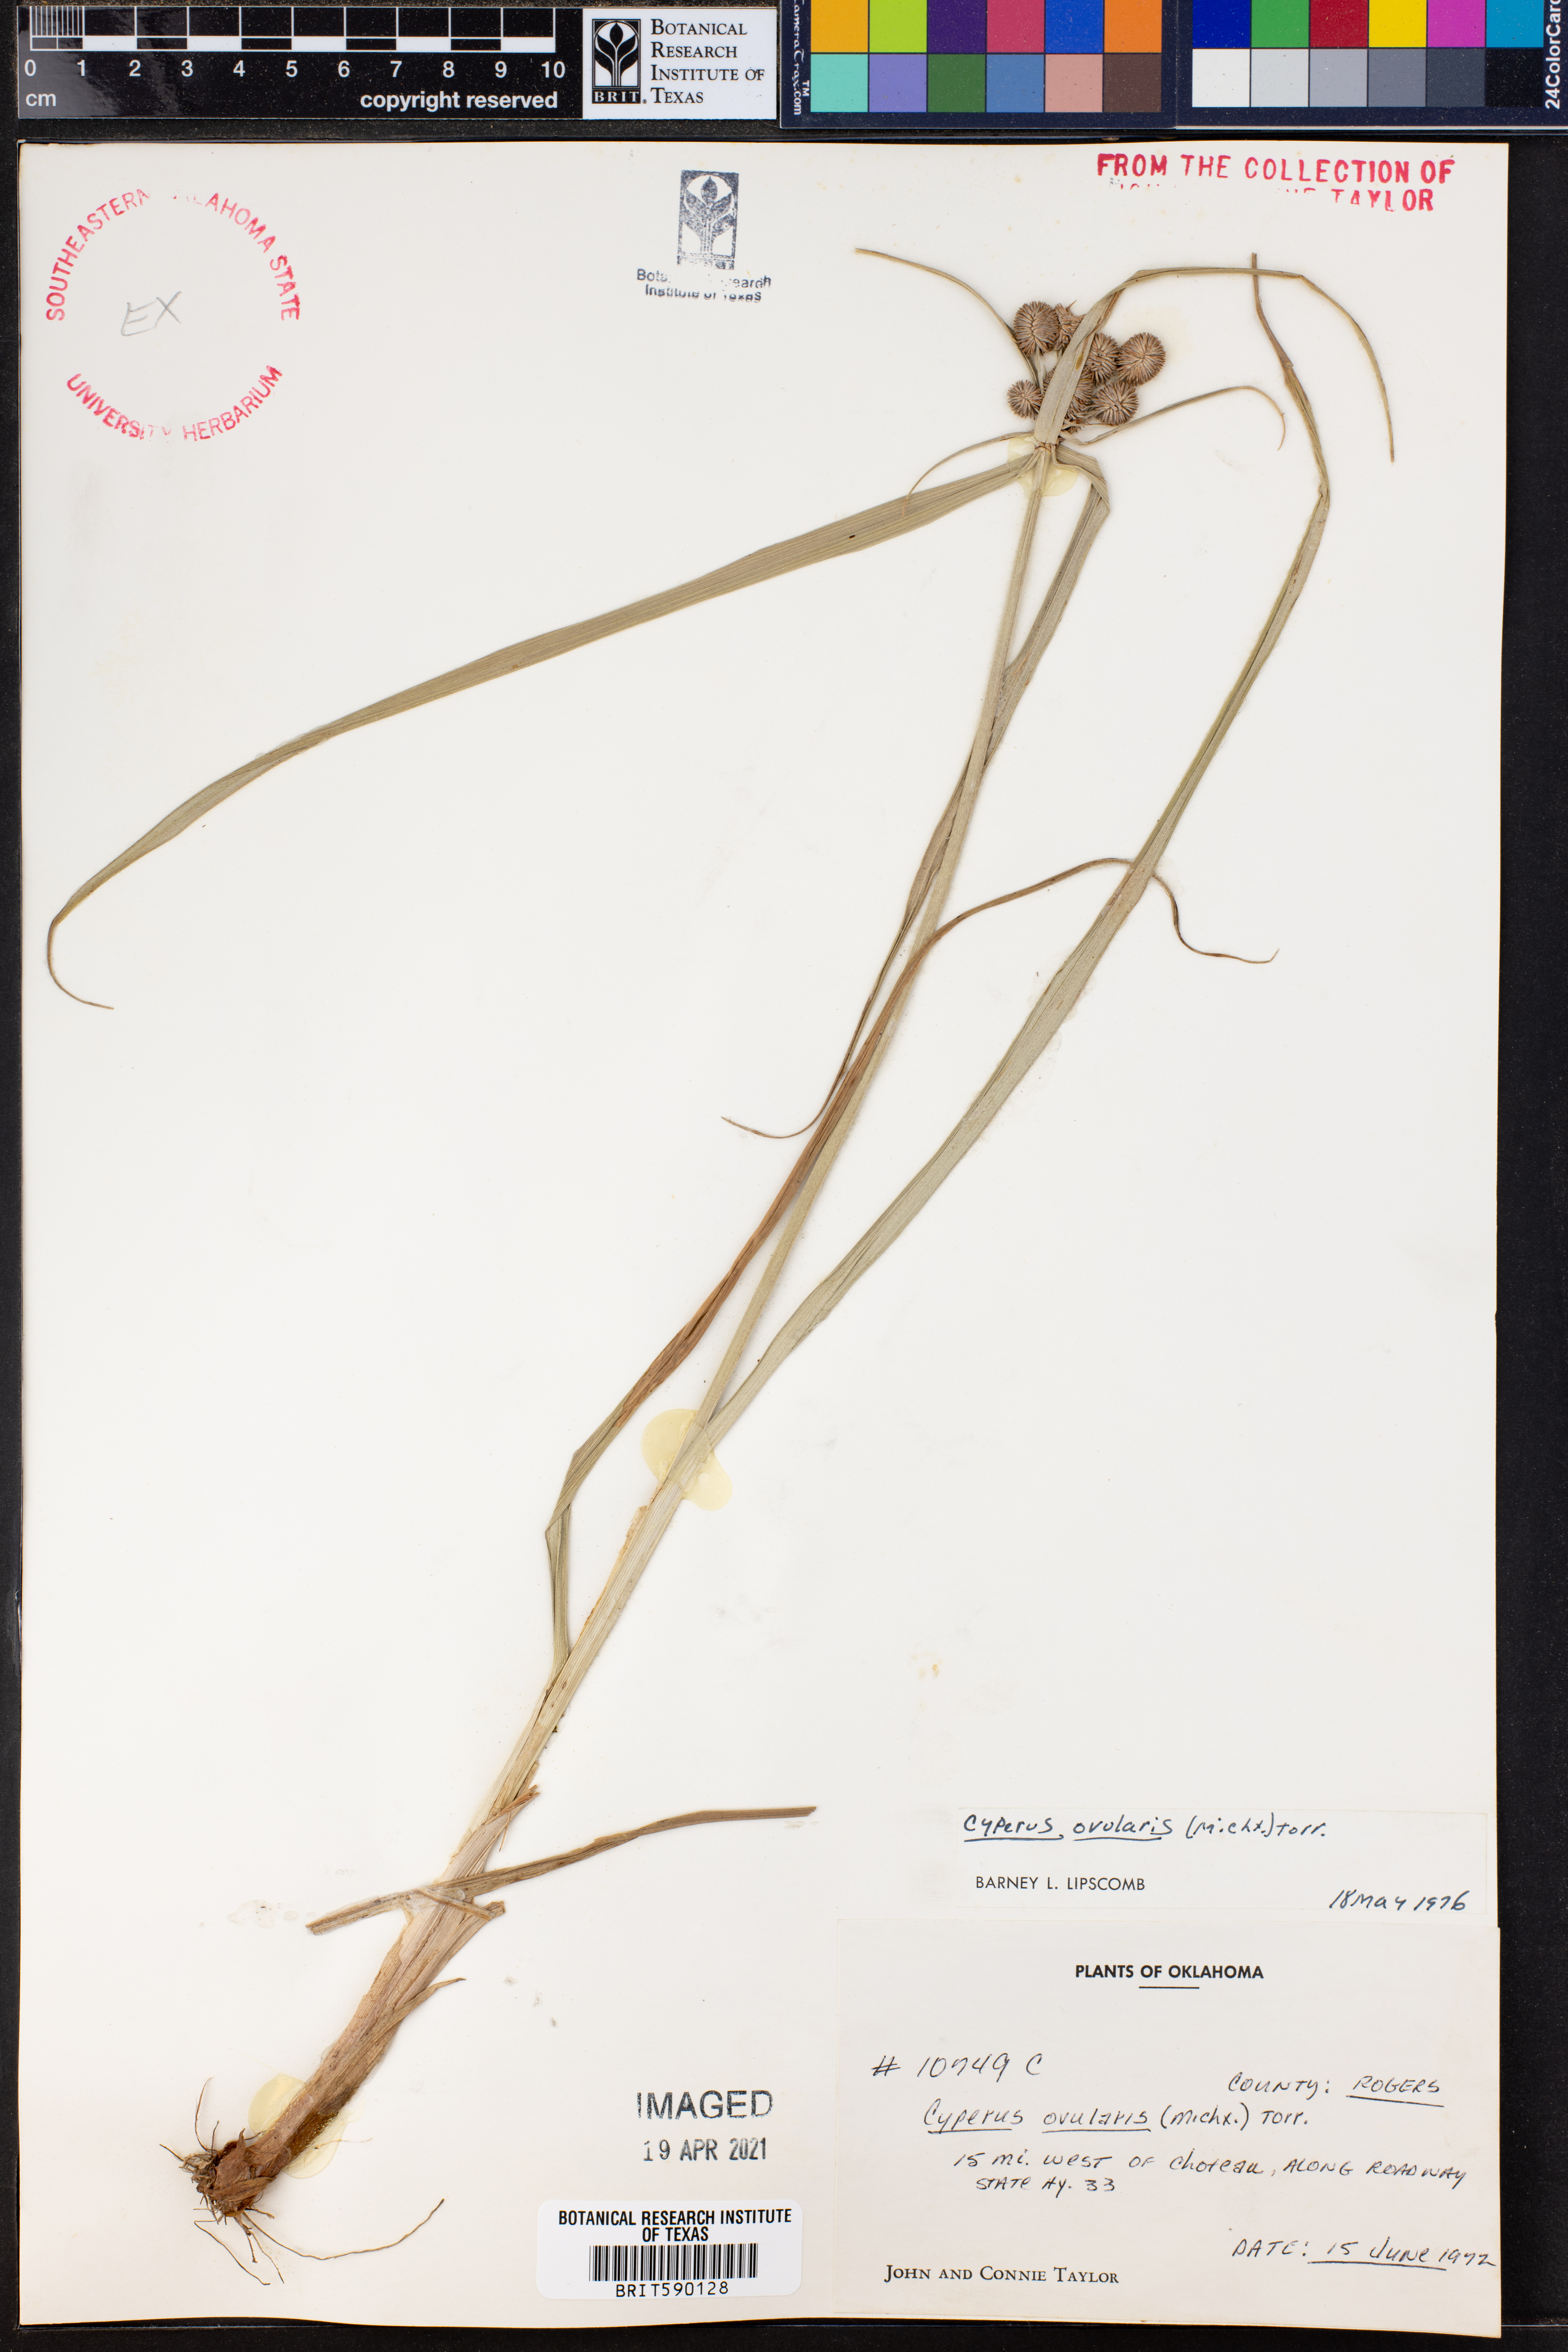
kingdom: Plantae
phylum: Tracheophyta
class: Liliopsida
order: Poales
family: Cyperaceae
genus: Cyperus
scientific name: Cyperus echinatus
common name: Teasel sedge
